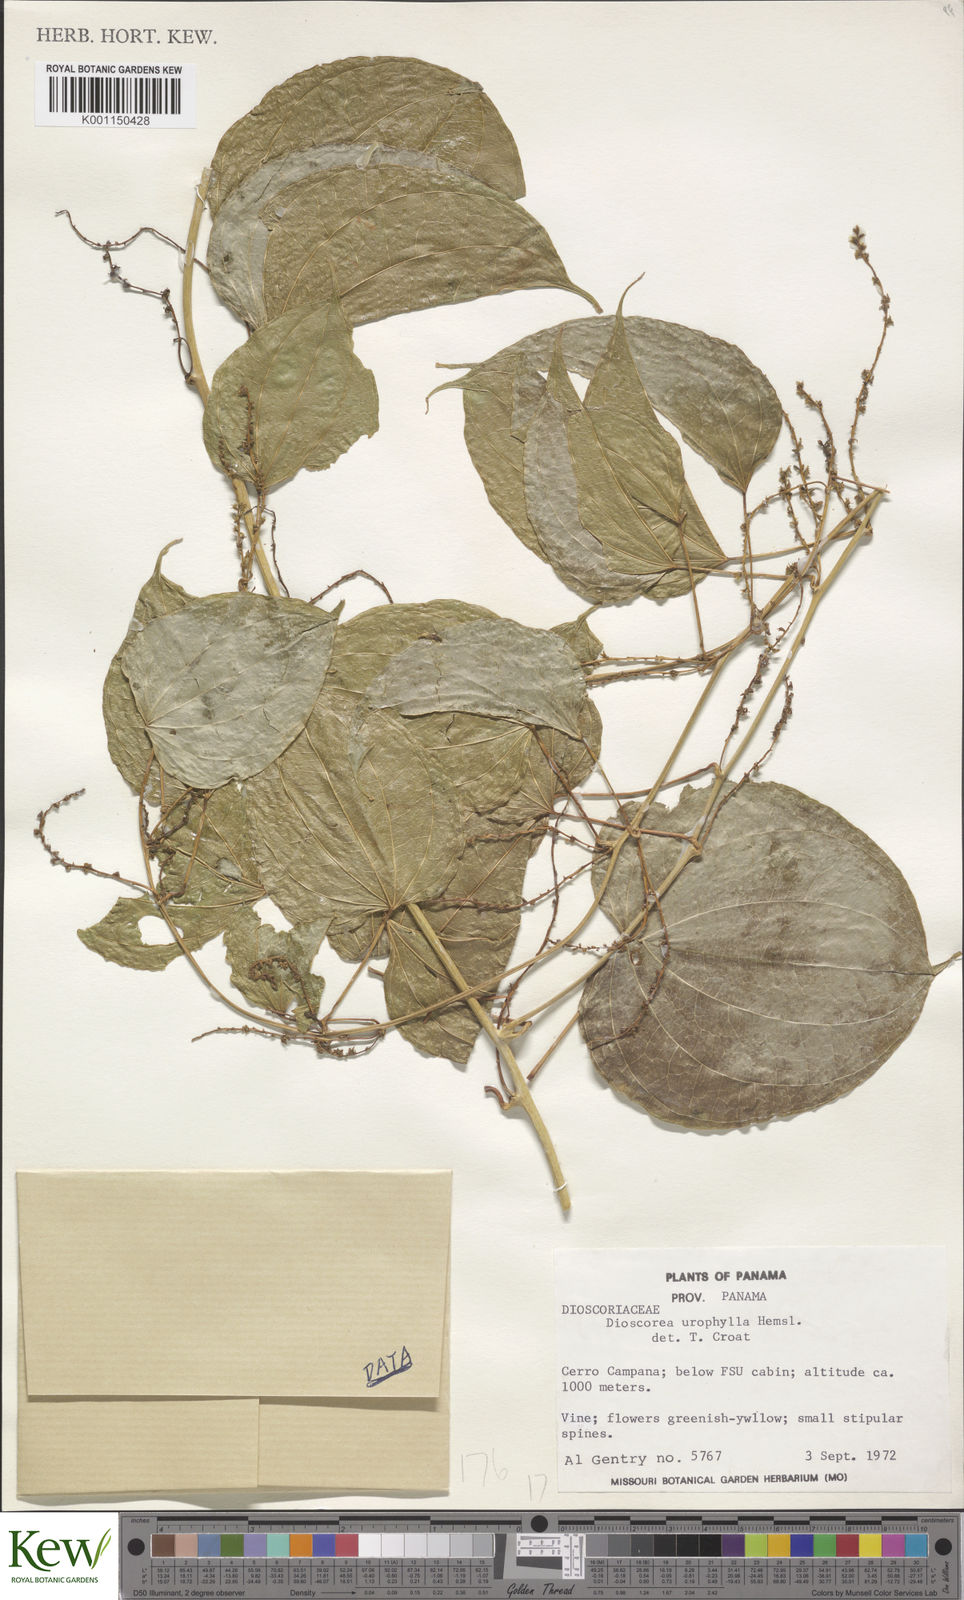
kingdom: Plantae
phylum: Tracheophyta
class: Liliopsida
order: Dioscoreales
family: Dioscoreaceae
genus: Dioscorea
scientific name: Dioscorea urophylla
